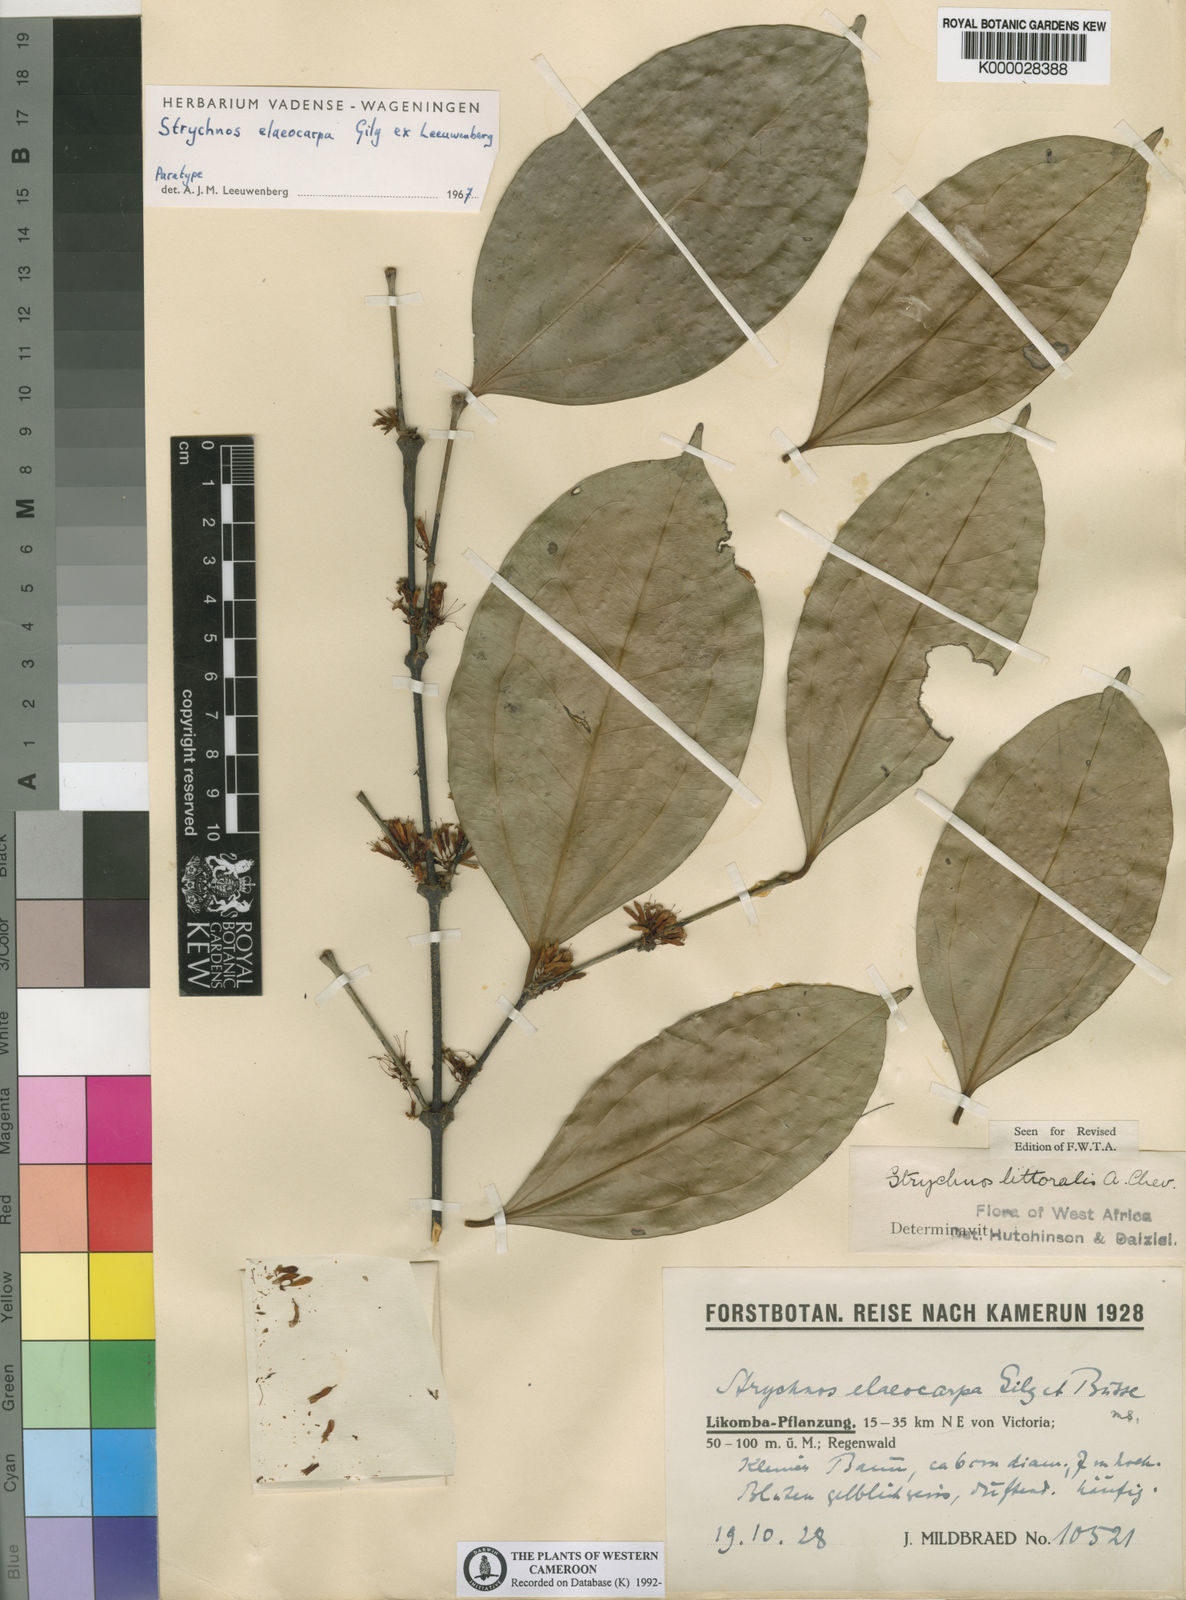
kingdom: Plantae
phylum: Tracheophyta
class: Magnoliopsida
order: Gentianales
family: Loganiaceae
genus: Strychnos
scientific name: Strychnos elaeocarpa
